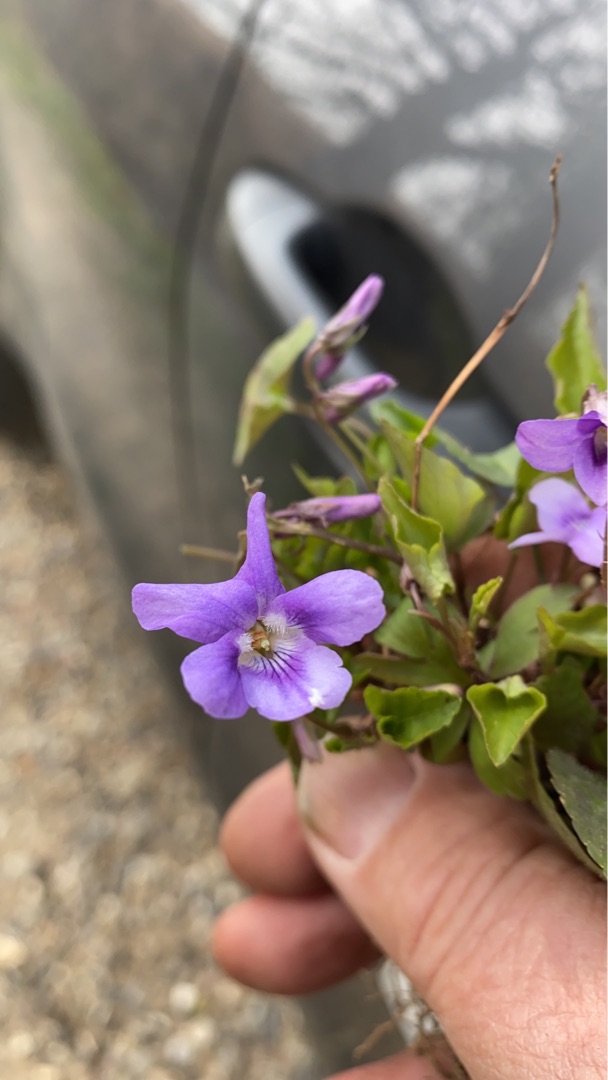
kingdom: Plantae
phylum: Tracheophyta
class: Magnoliopsida
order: Malpighiales
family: Violaceae
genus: Viola
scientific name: Viola reichenbachiana
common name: Skov-viol
